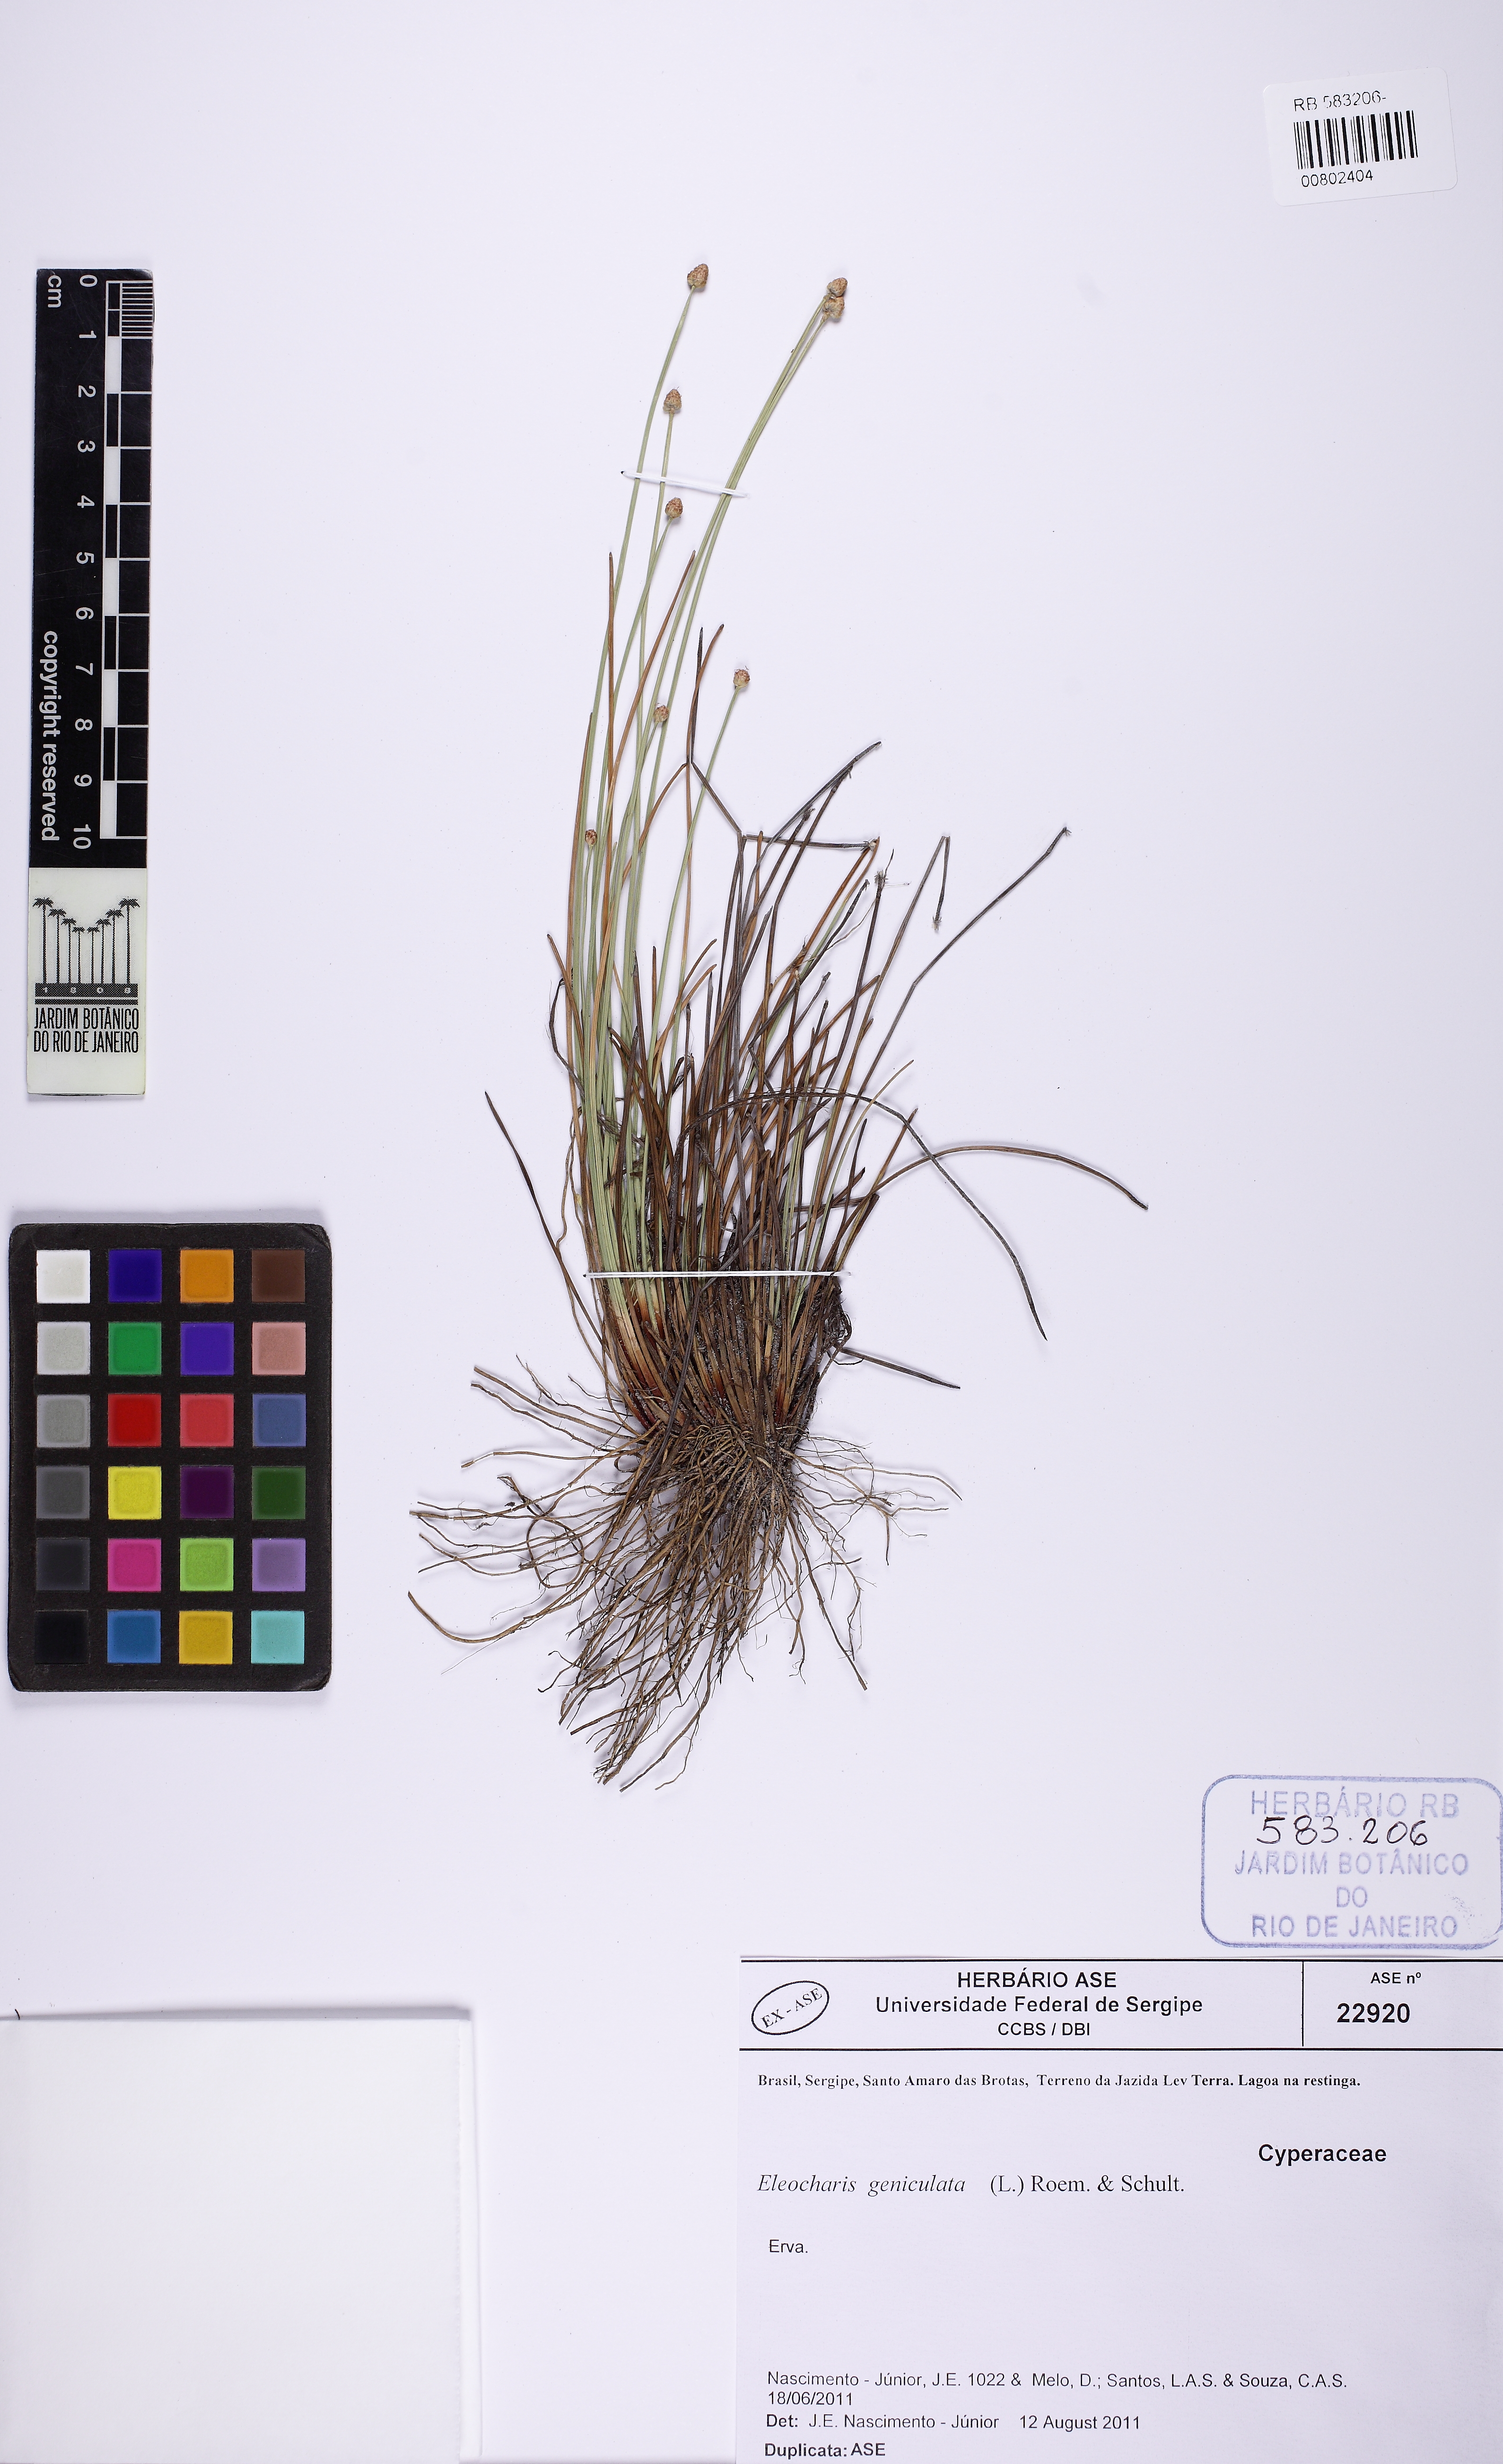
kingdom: Plantae
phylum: Tracheophyta
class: Liliopsida
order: Poales
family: Cyperaceae
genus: Eleocharis
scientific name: Eleocharis geniculata
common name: Canada spikesedge
